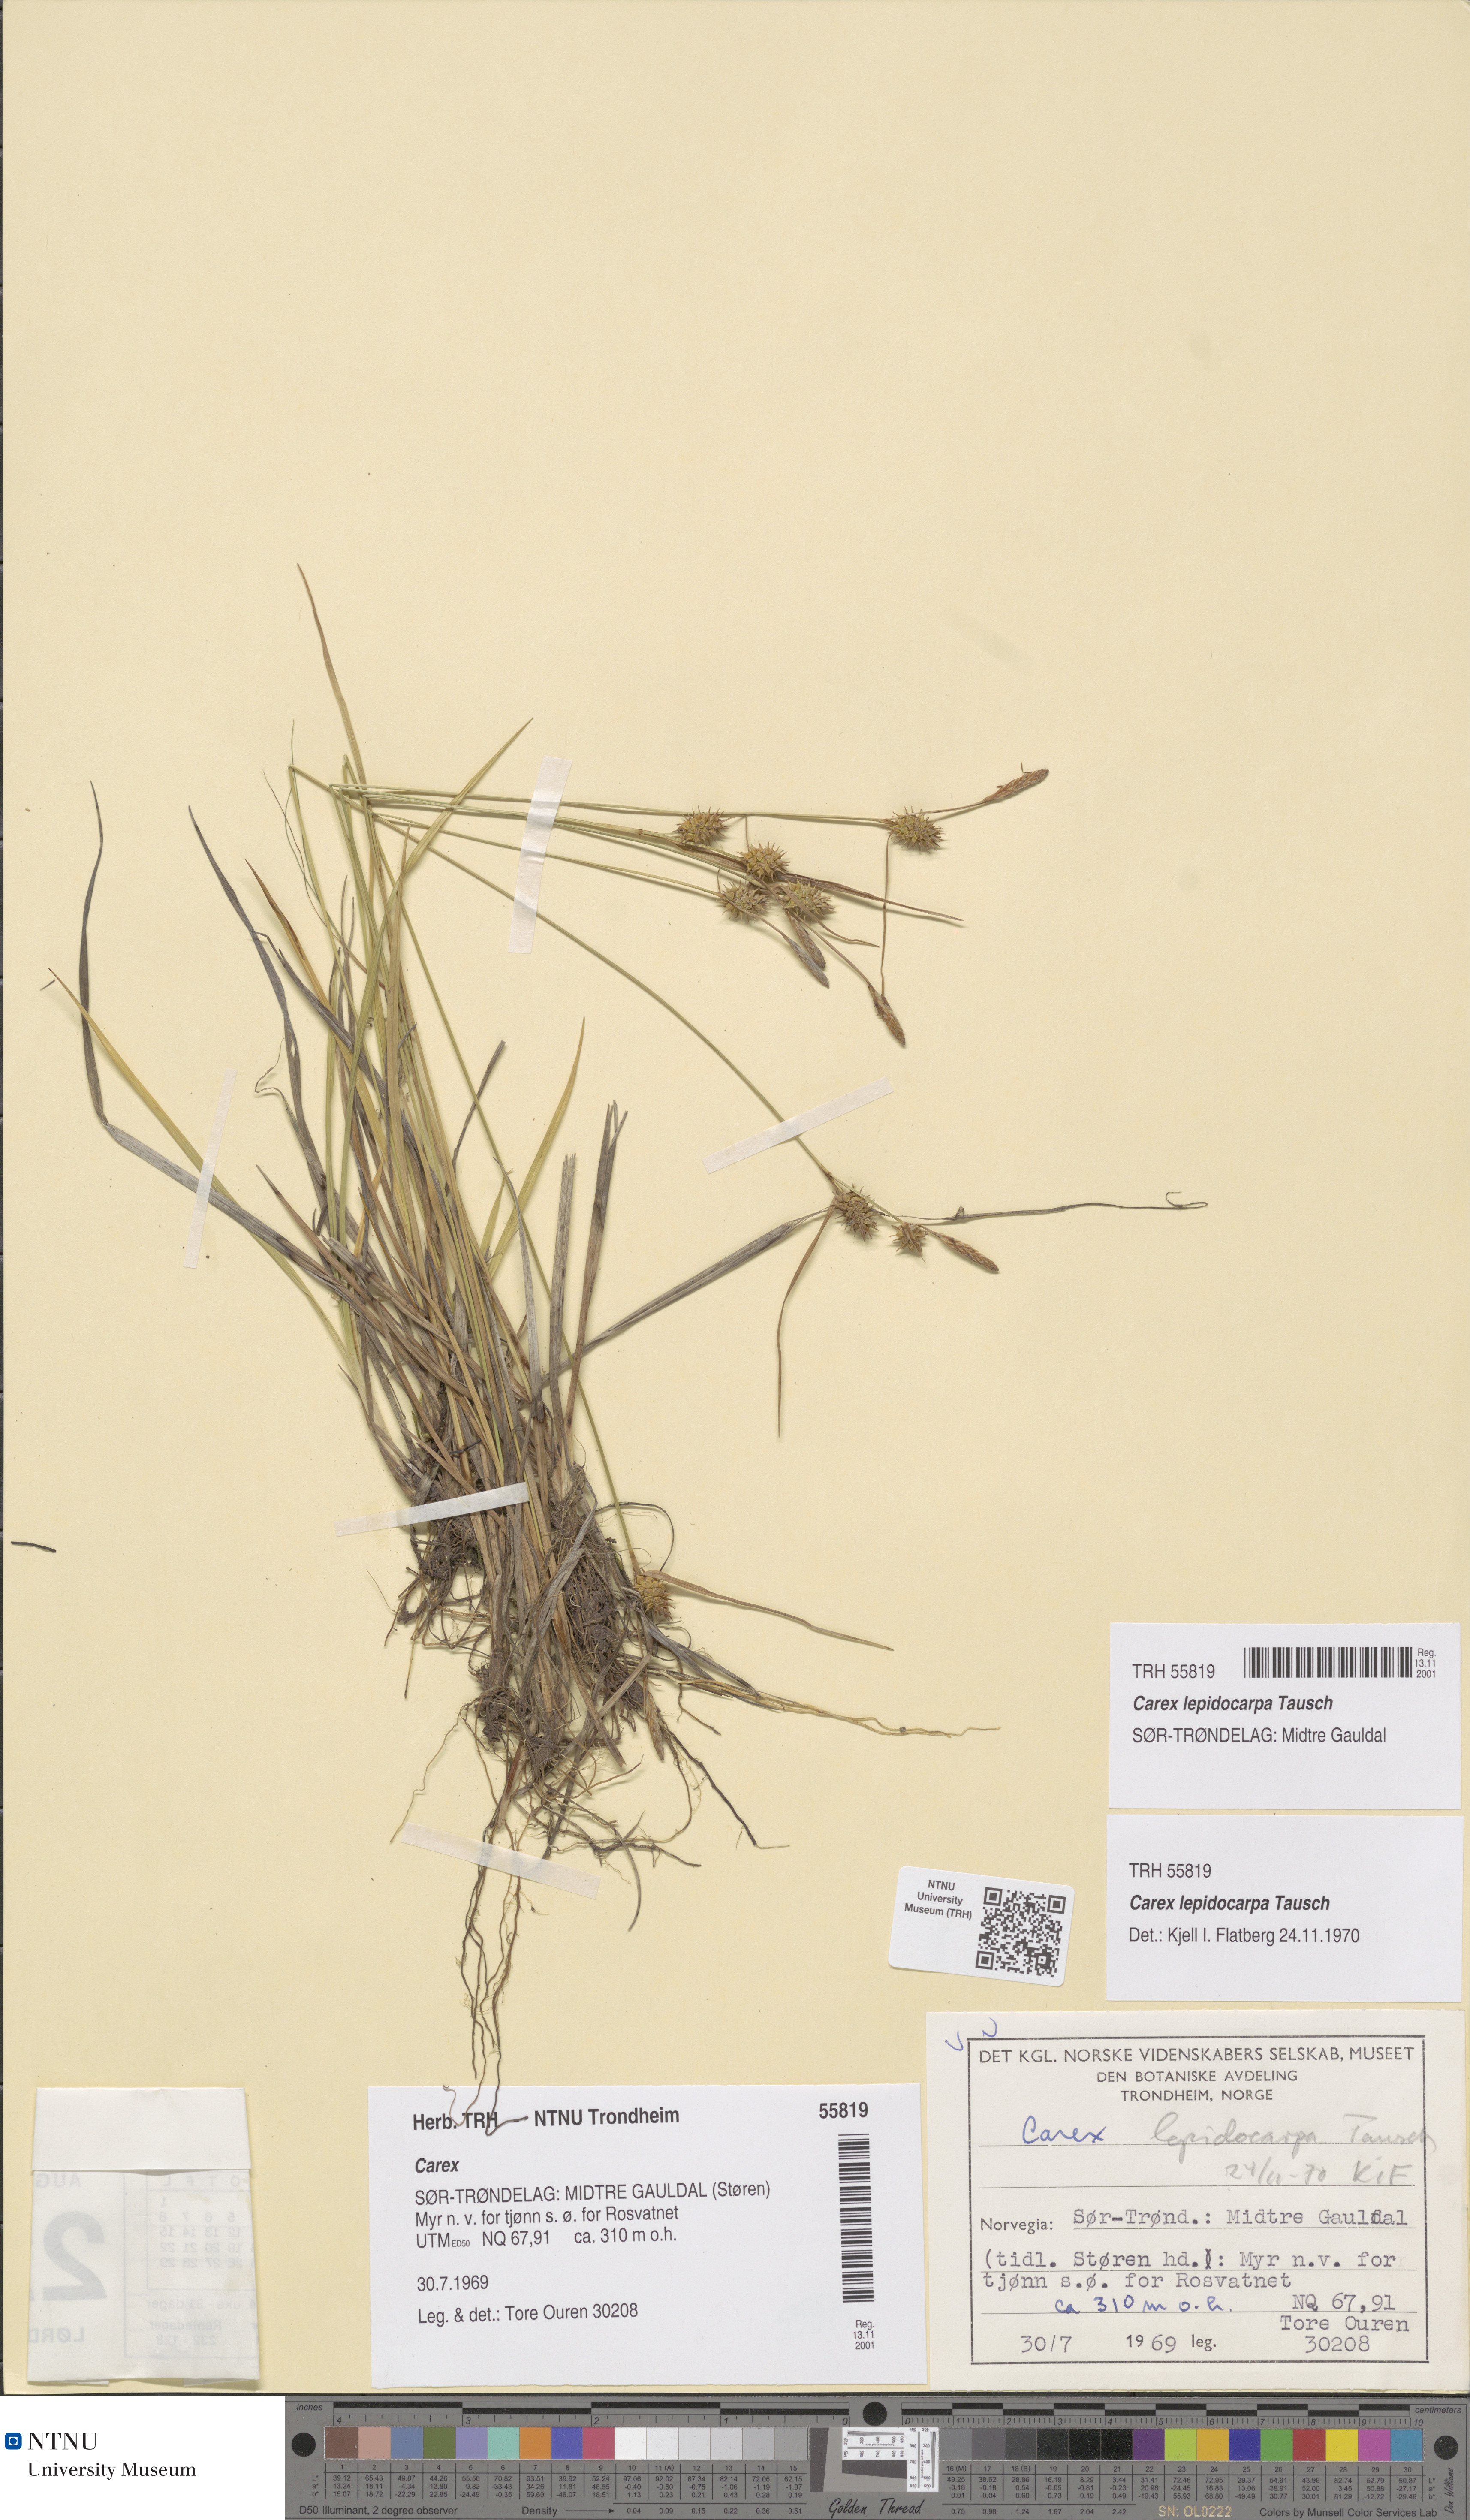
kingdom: Plantae
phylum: Tracheophyta
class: Liliopsida
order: Poales
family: Cyperaceae
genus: Carex
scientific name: Carex lepidocarpa
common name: Long-stalked yellow-sedge
